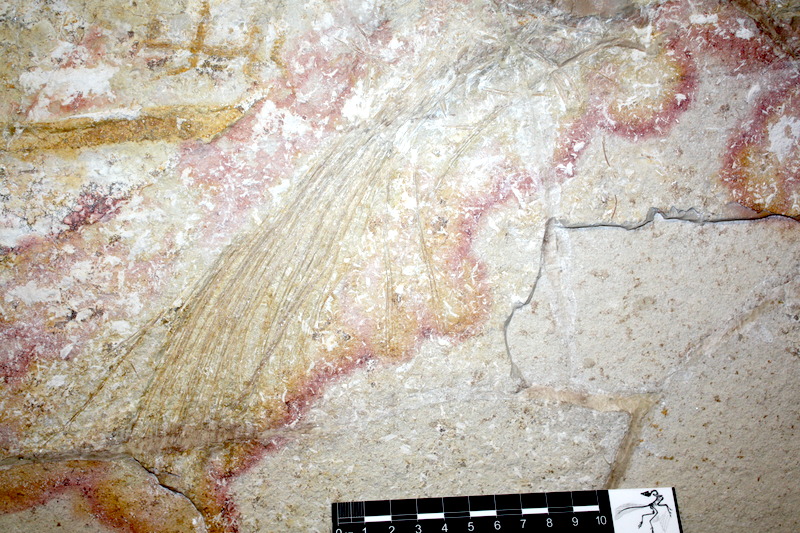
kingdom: Animalia
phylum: Chordata
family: Pachycormidae
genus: Asthenocormus
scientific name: Asthenocormus titanius
